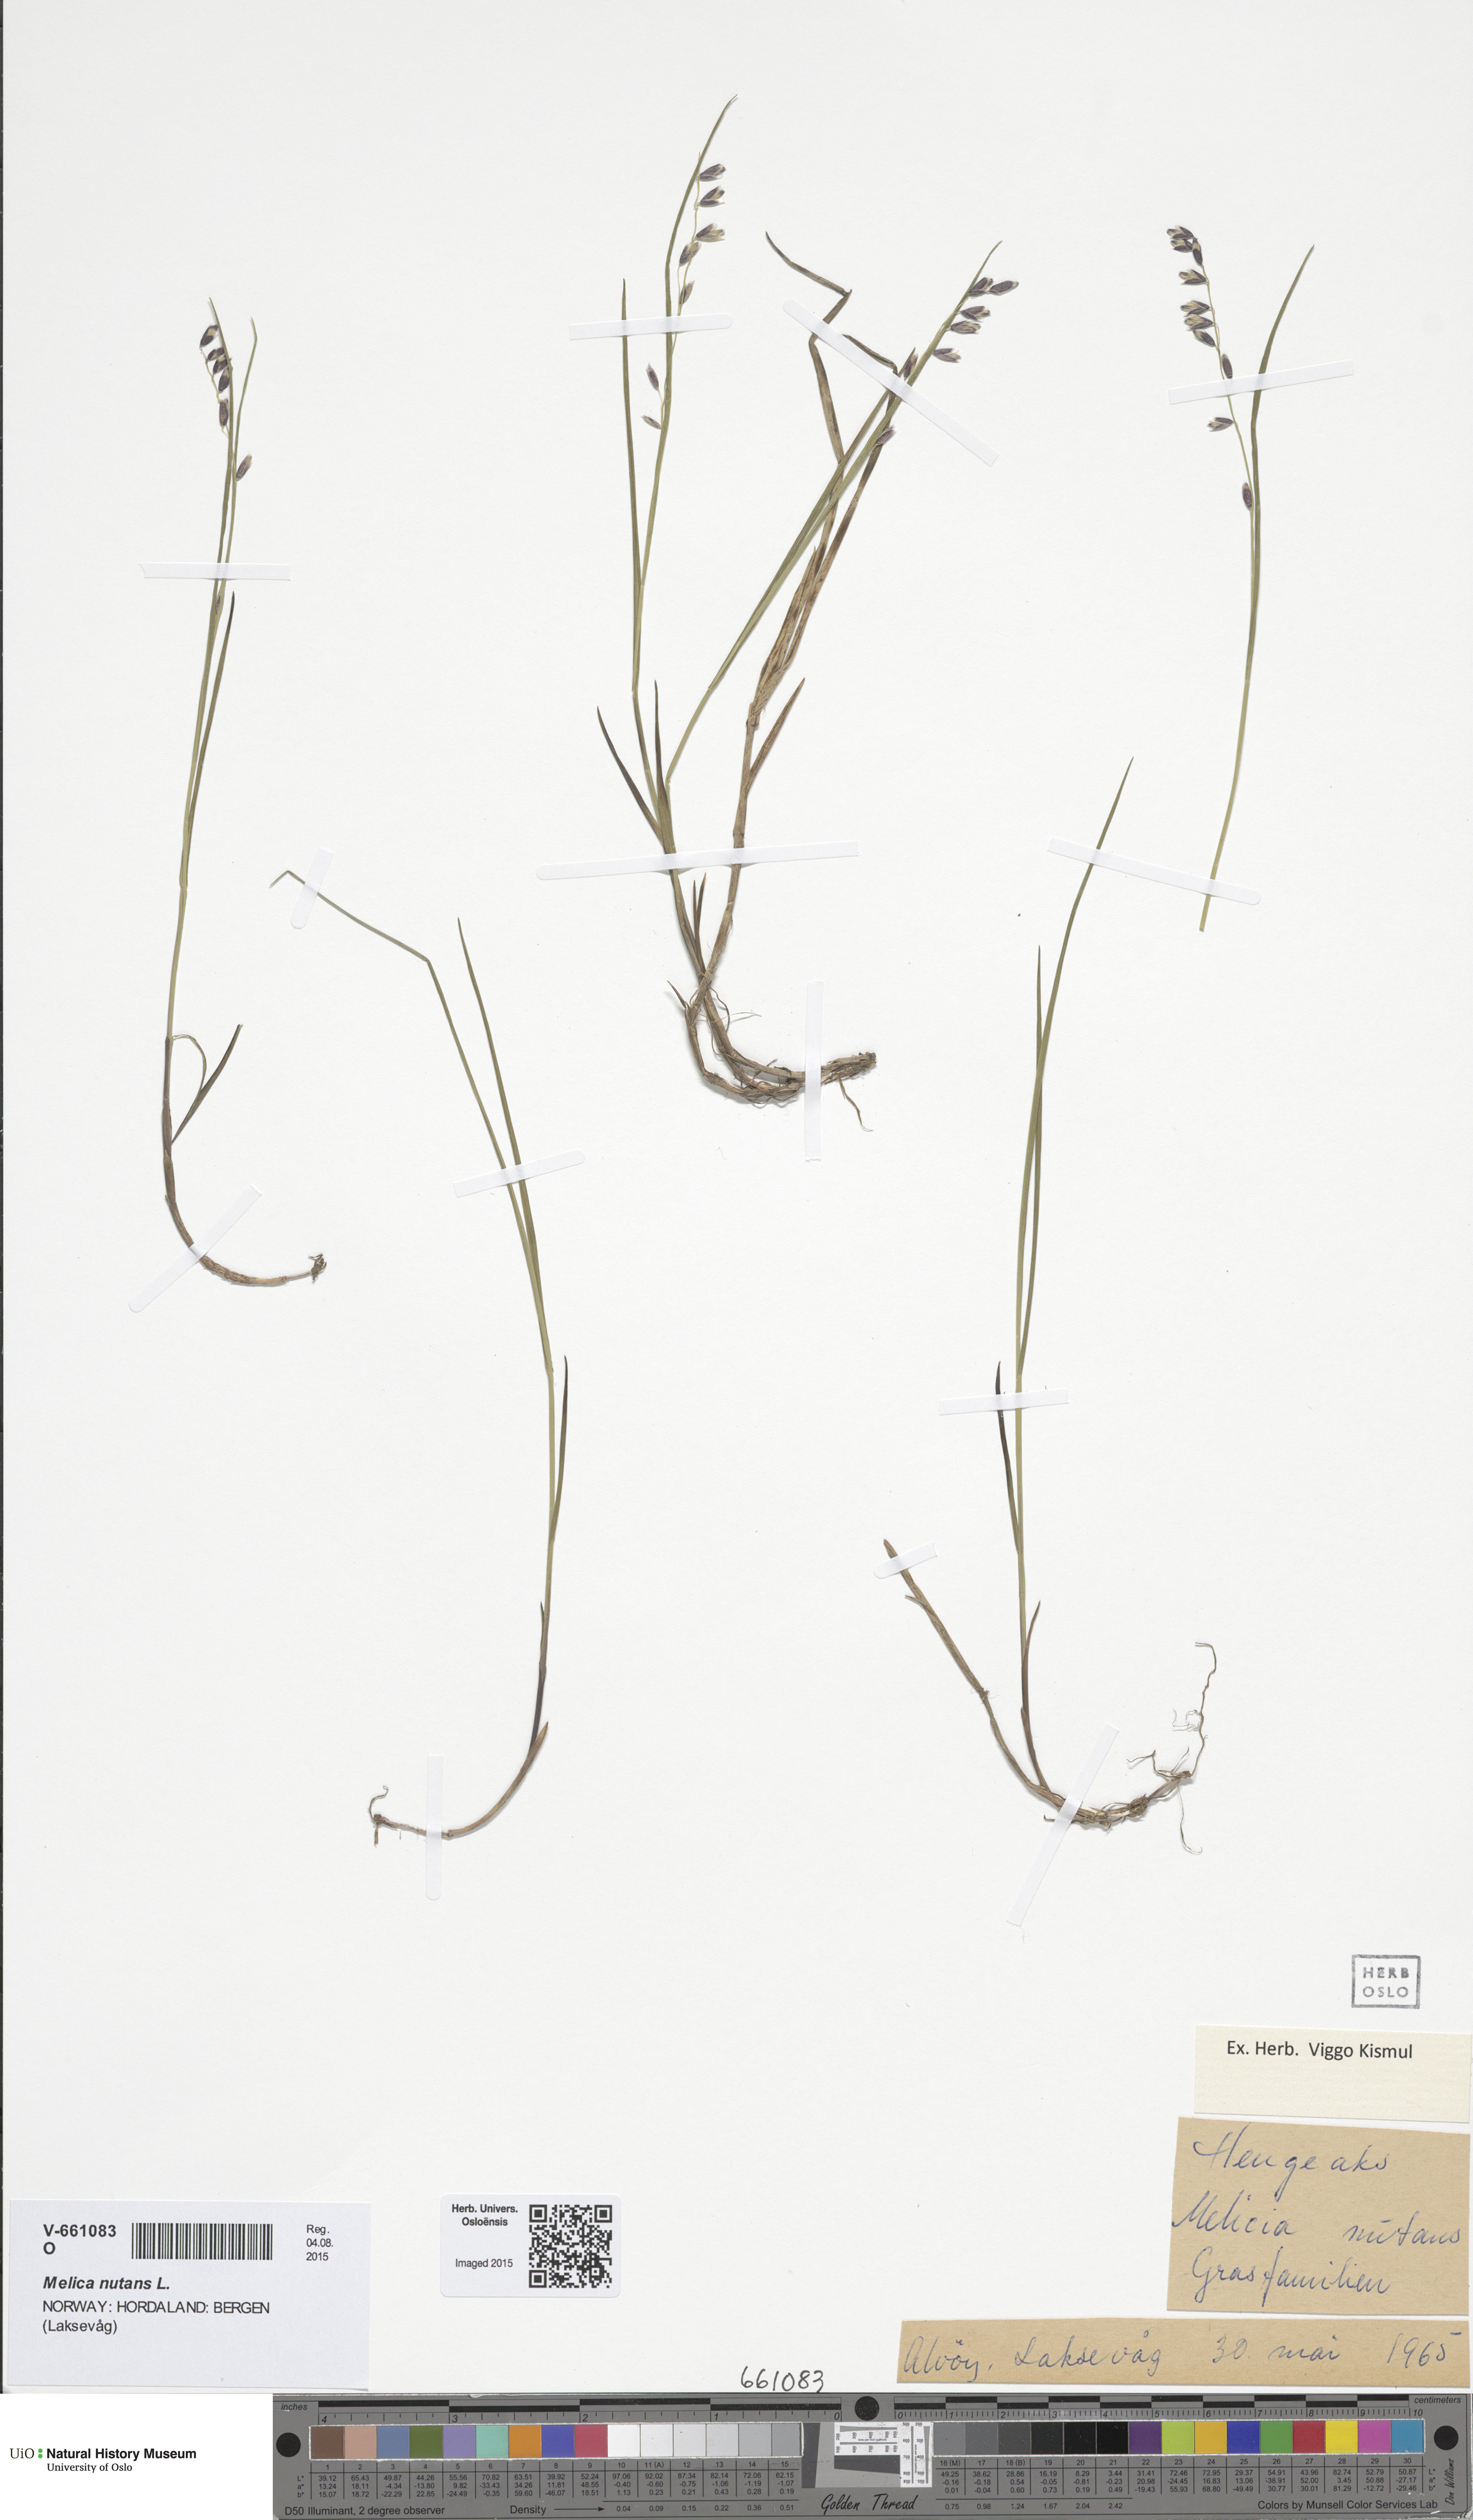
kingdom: Plantae
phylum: Tracheophyta
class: Liliopsida
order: Poales
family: Poaceae
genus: Melica
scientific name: Melica nutans
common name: Mountain melick
